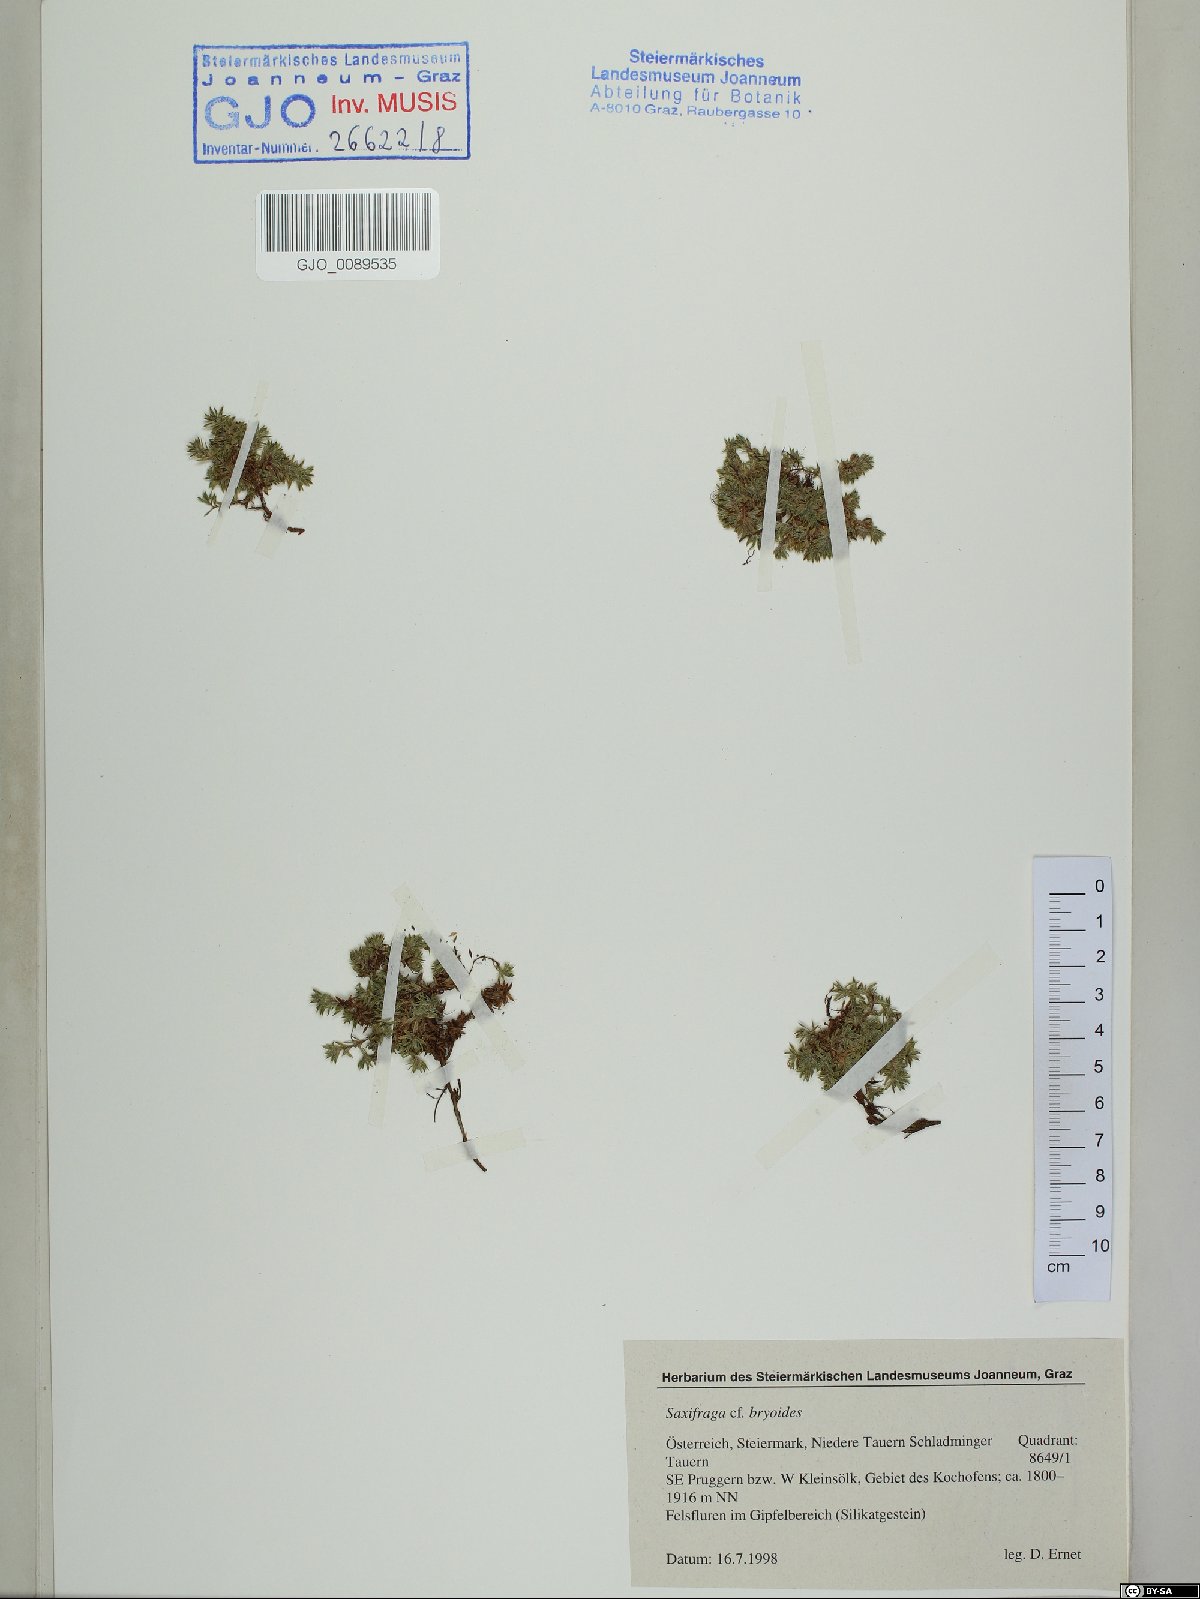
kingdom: Plantae
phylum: Tracheophyta
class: Magnoliopsida
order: Saxifragales
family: Saxifragaceae
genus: Saxifraga
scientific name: Saxifraga bryoides
